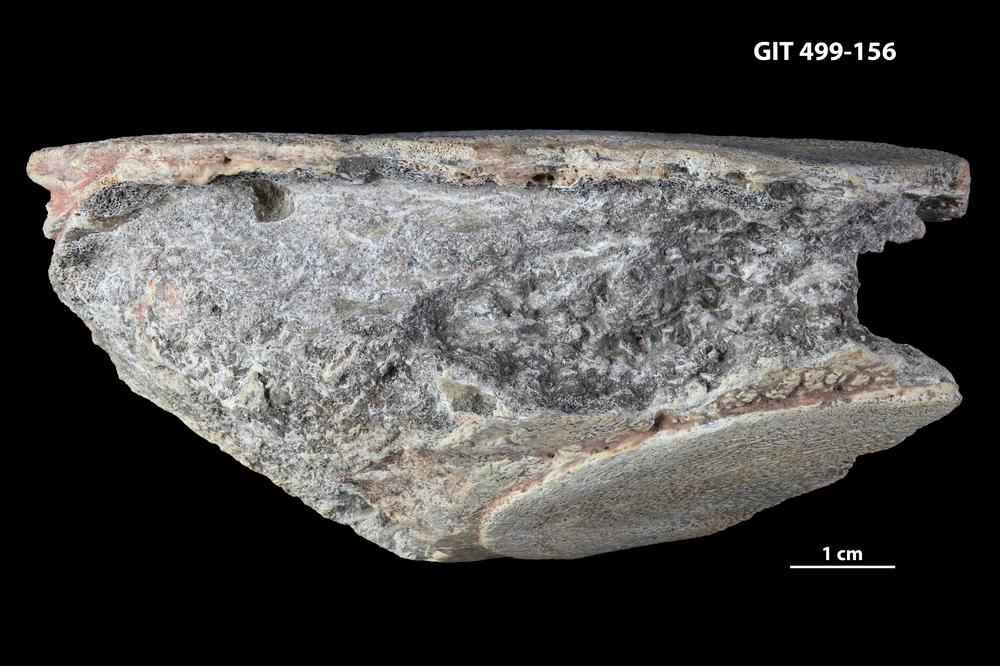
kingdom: Animalia
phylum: Chordata
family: Rhinodipteridae
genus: Rhinodipterus
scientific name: Rhinodipterus
